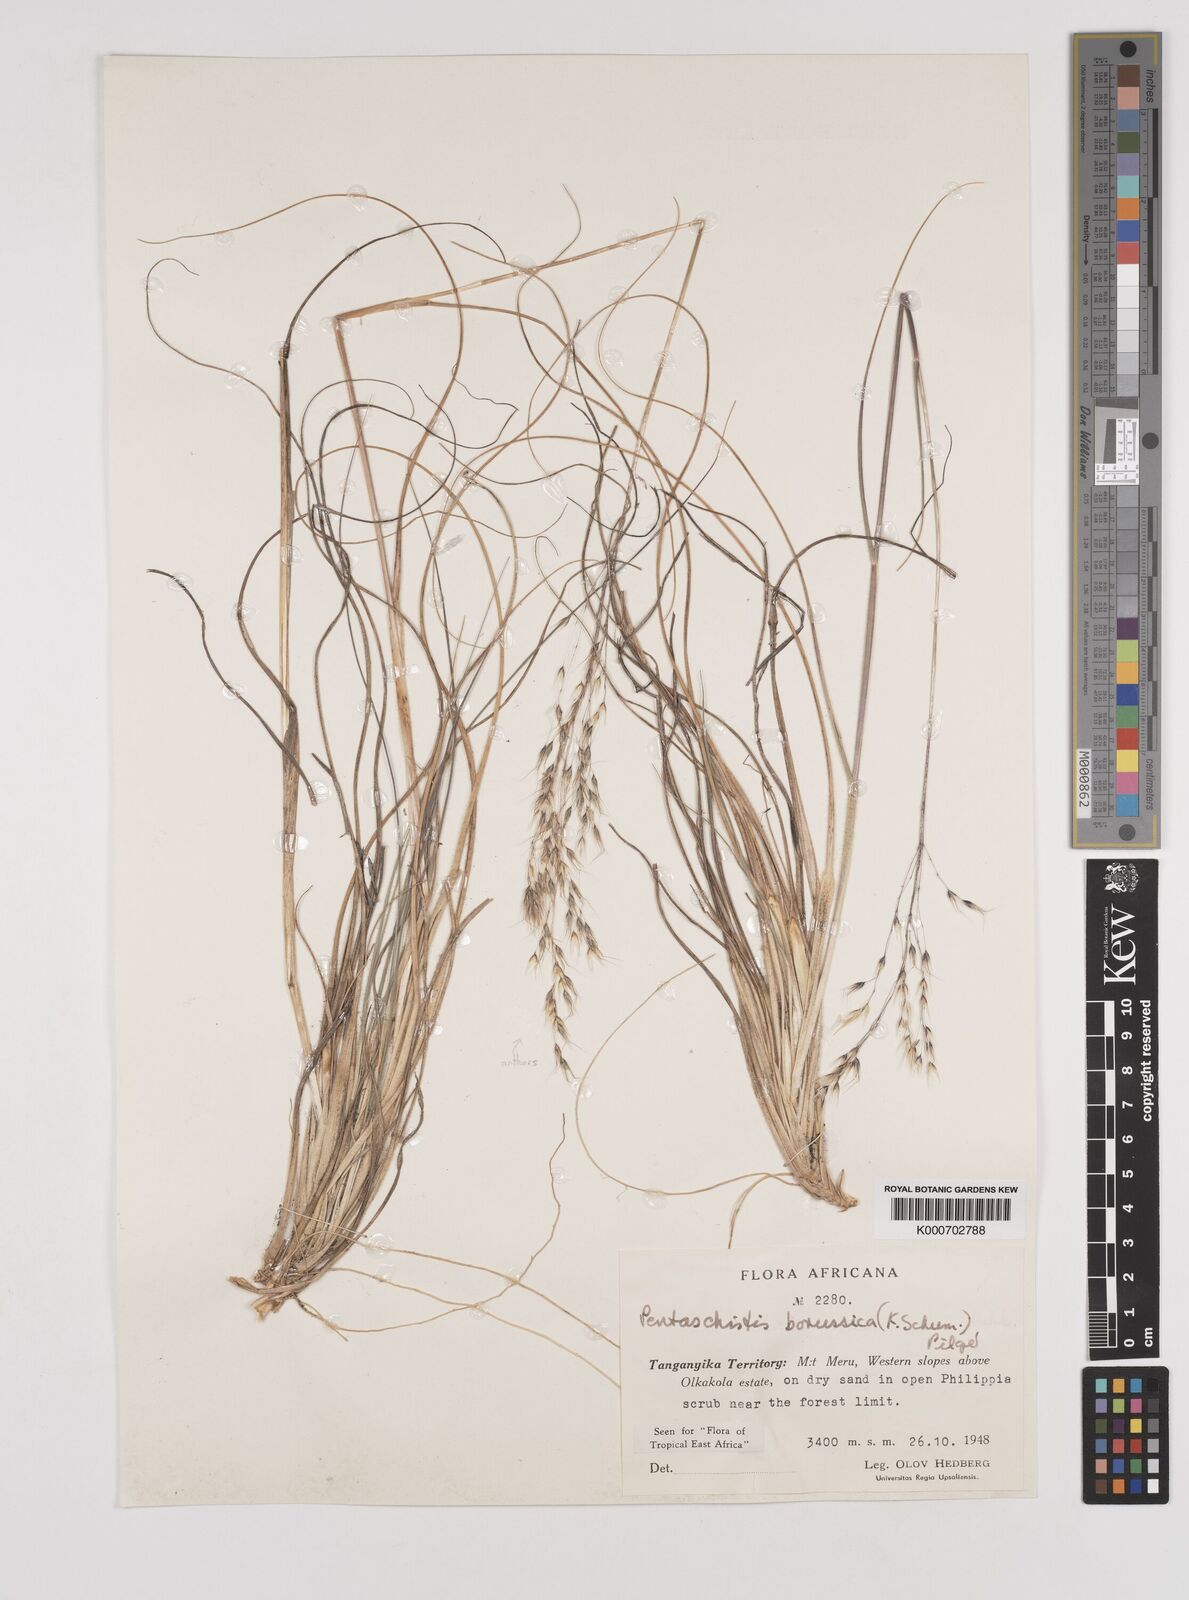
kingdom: Plantae
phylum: Tracheophyta
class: Liliopsida
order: Poales
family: Poaceae
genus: Pentameris
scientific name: Pentameris borussica
